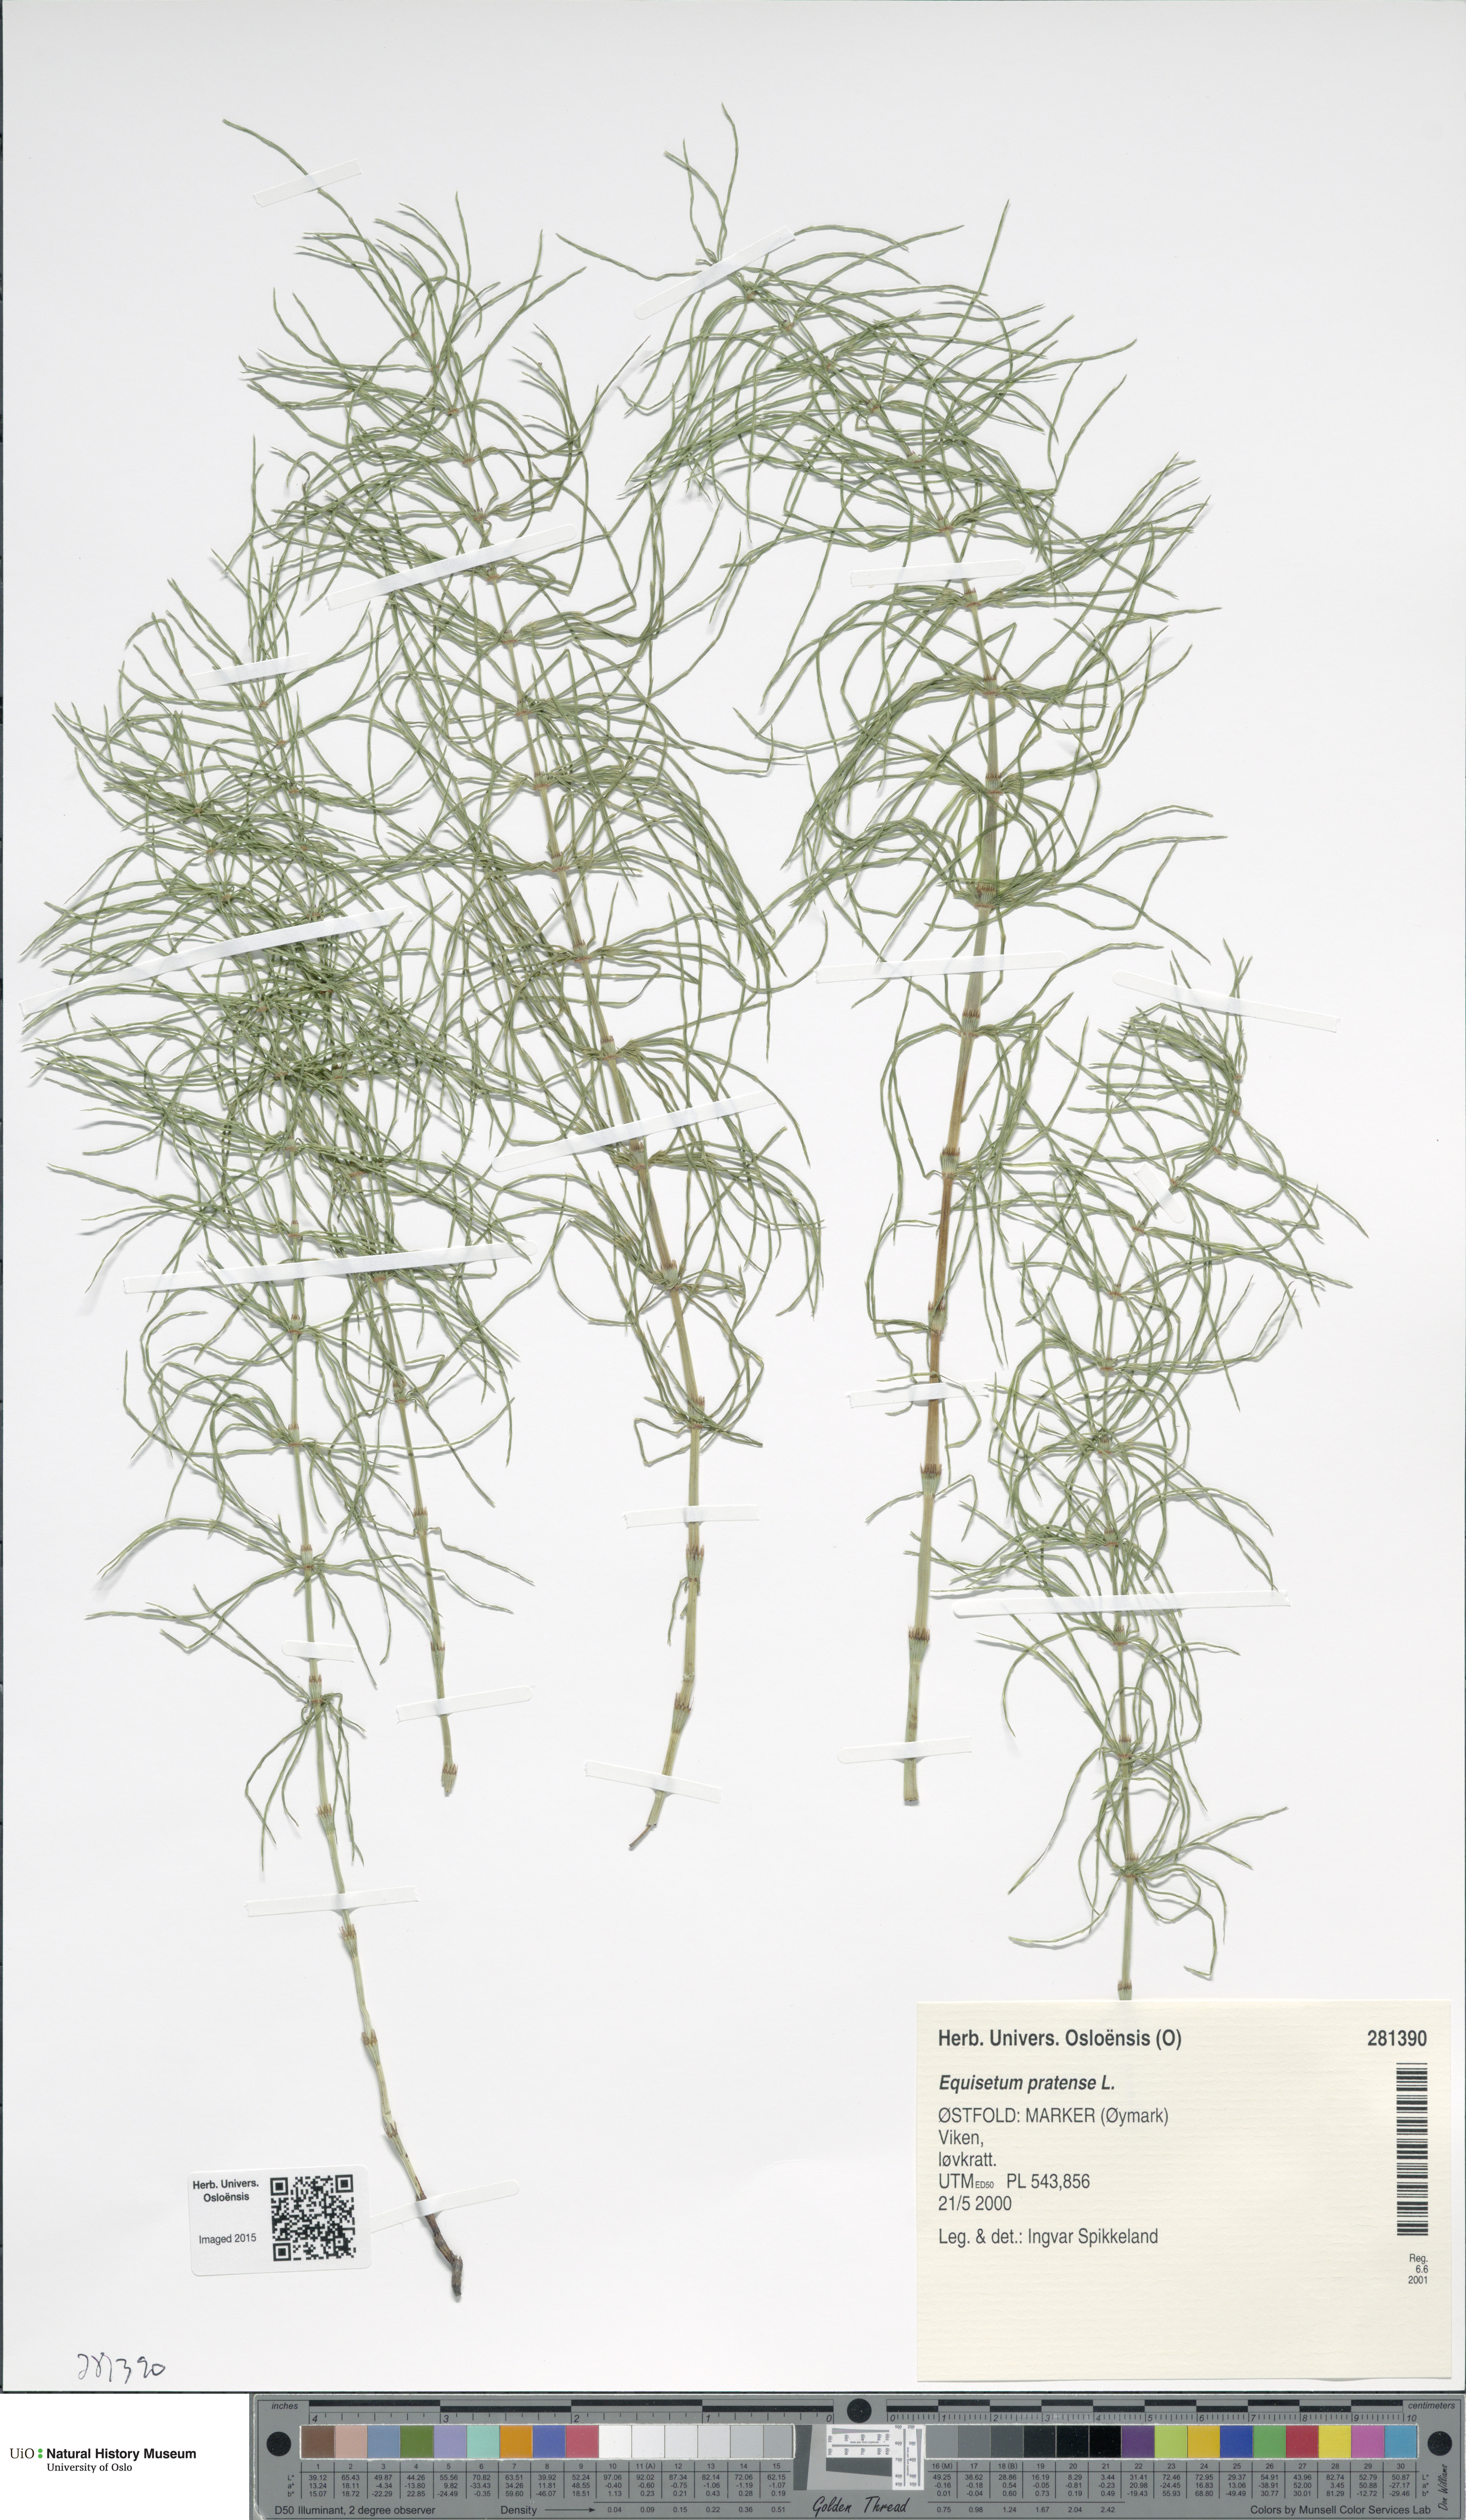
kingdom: Plantae
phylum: Tracheophyta
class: Polypodiopsida
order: Equisetales
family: Equisetaceae
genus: Equisetum
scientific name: Equisetum pratense
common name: Meadow horsetail
